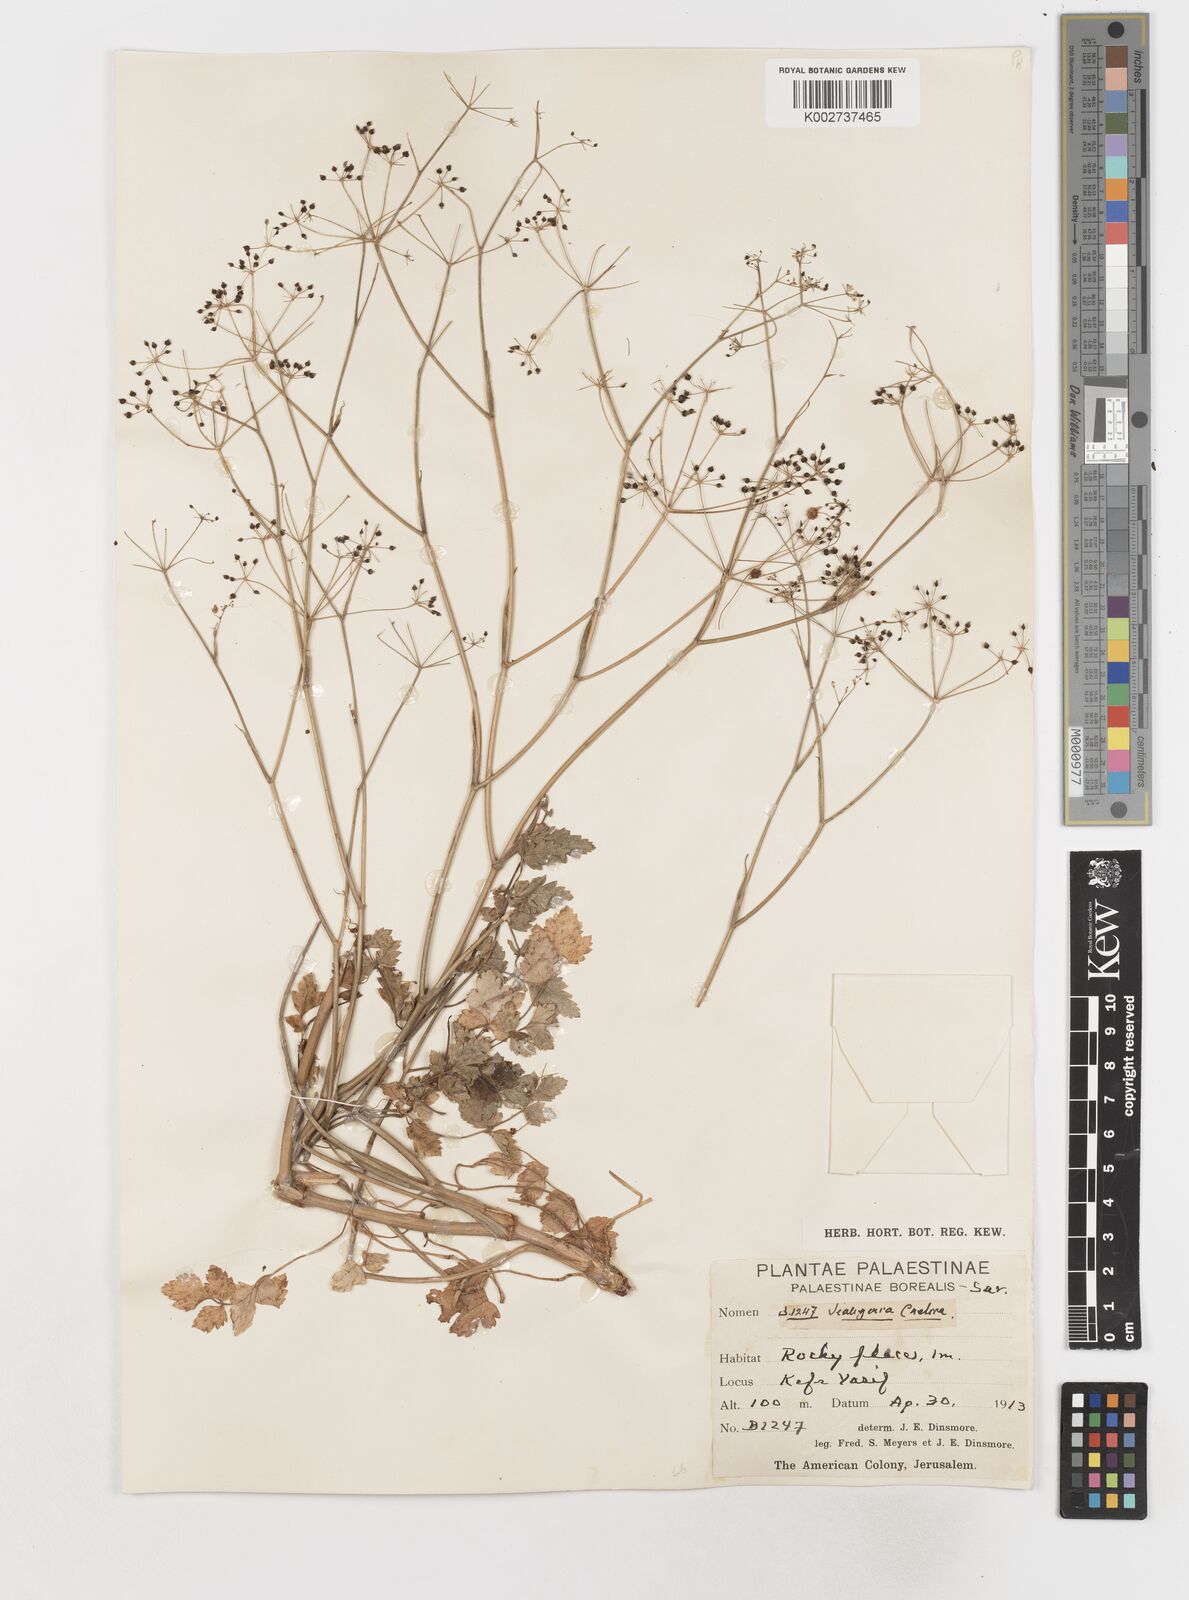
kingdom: Plantae
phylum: Tracheophyta
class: Magnoliopsida
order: Apiales
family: Apiaceae
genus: Scaligeria
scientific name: Scaligeria
